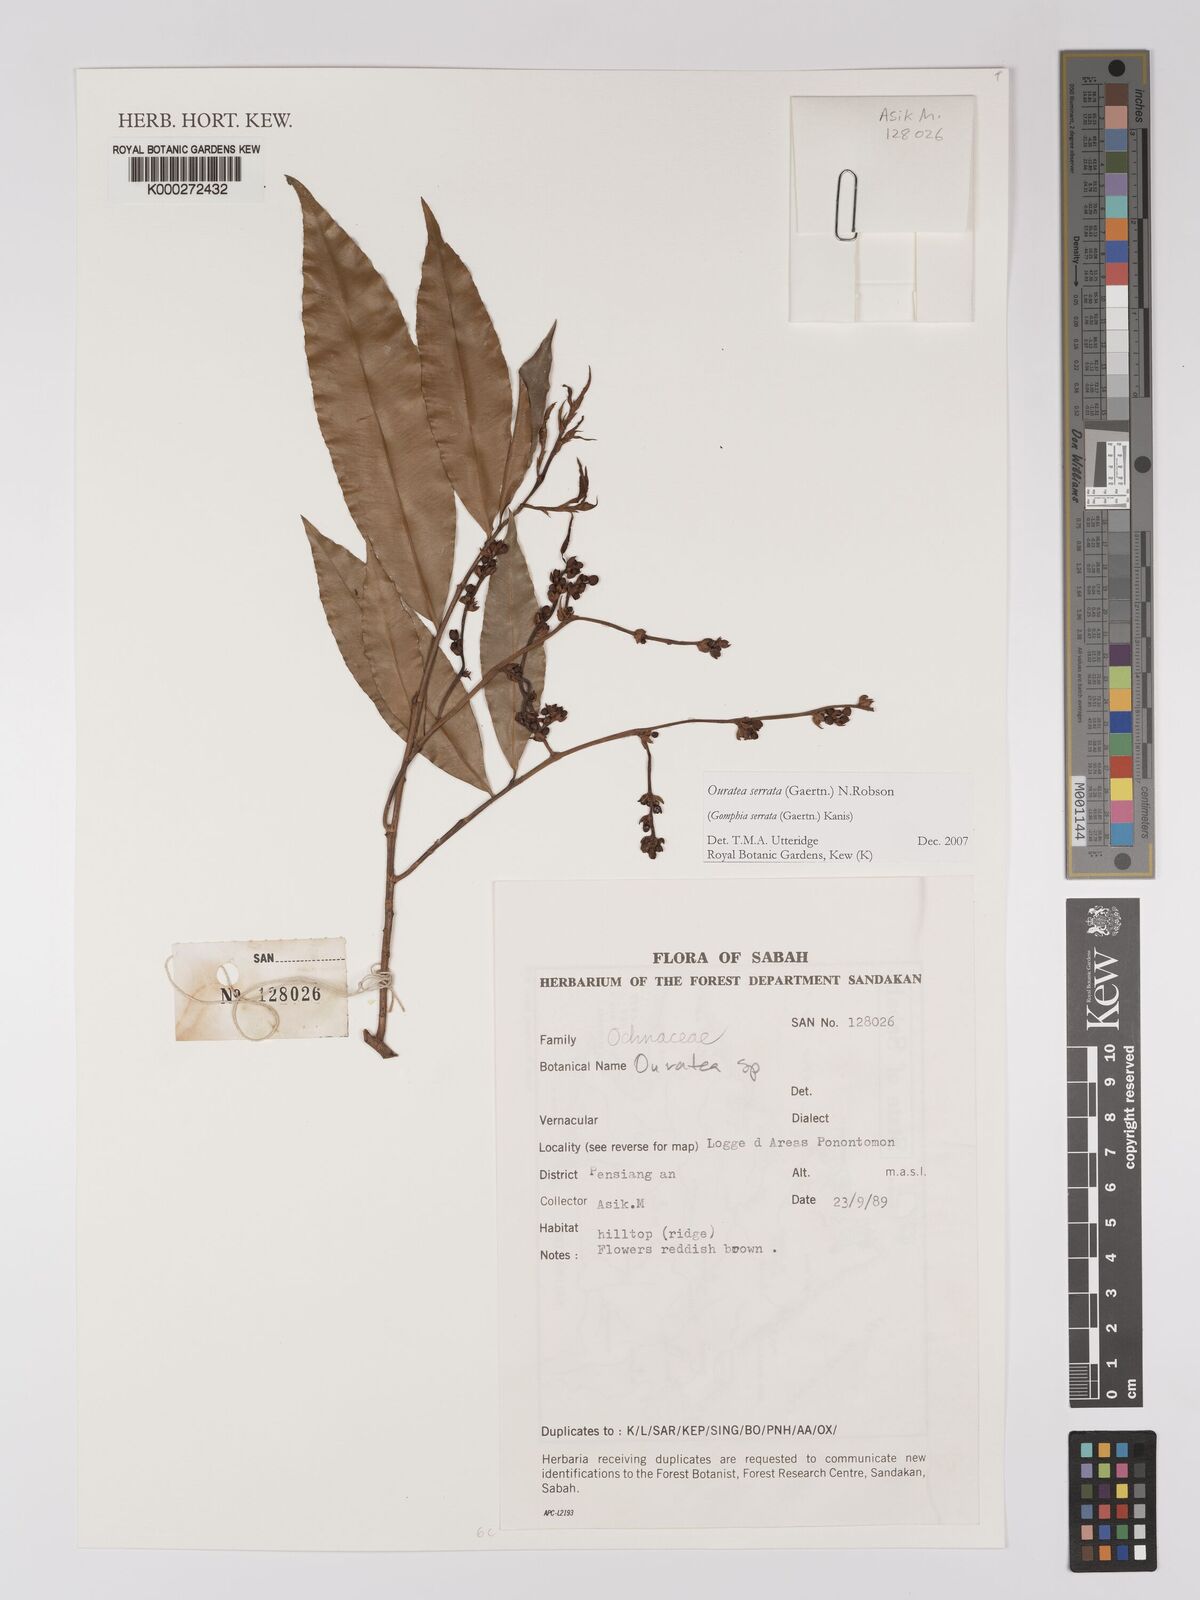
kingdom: Plantae
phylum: Tracheophyta
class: Magnoliopsida
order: Malpighiales
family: Ochnaceae
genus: Gomphia
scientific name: Gomphia serrata
